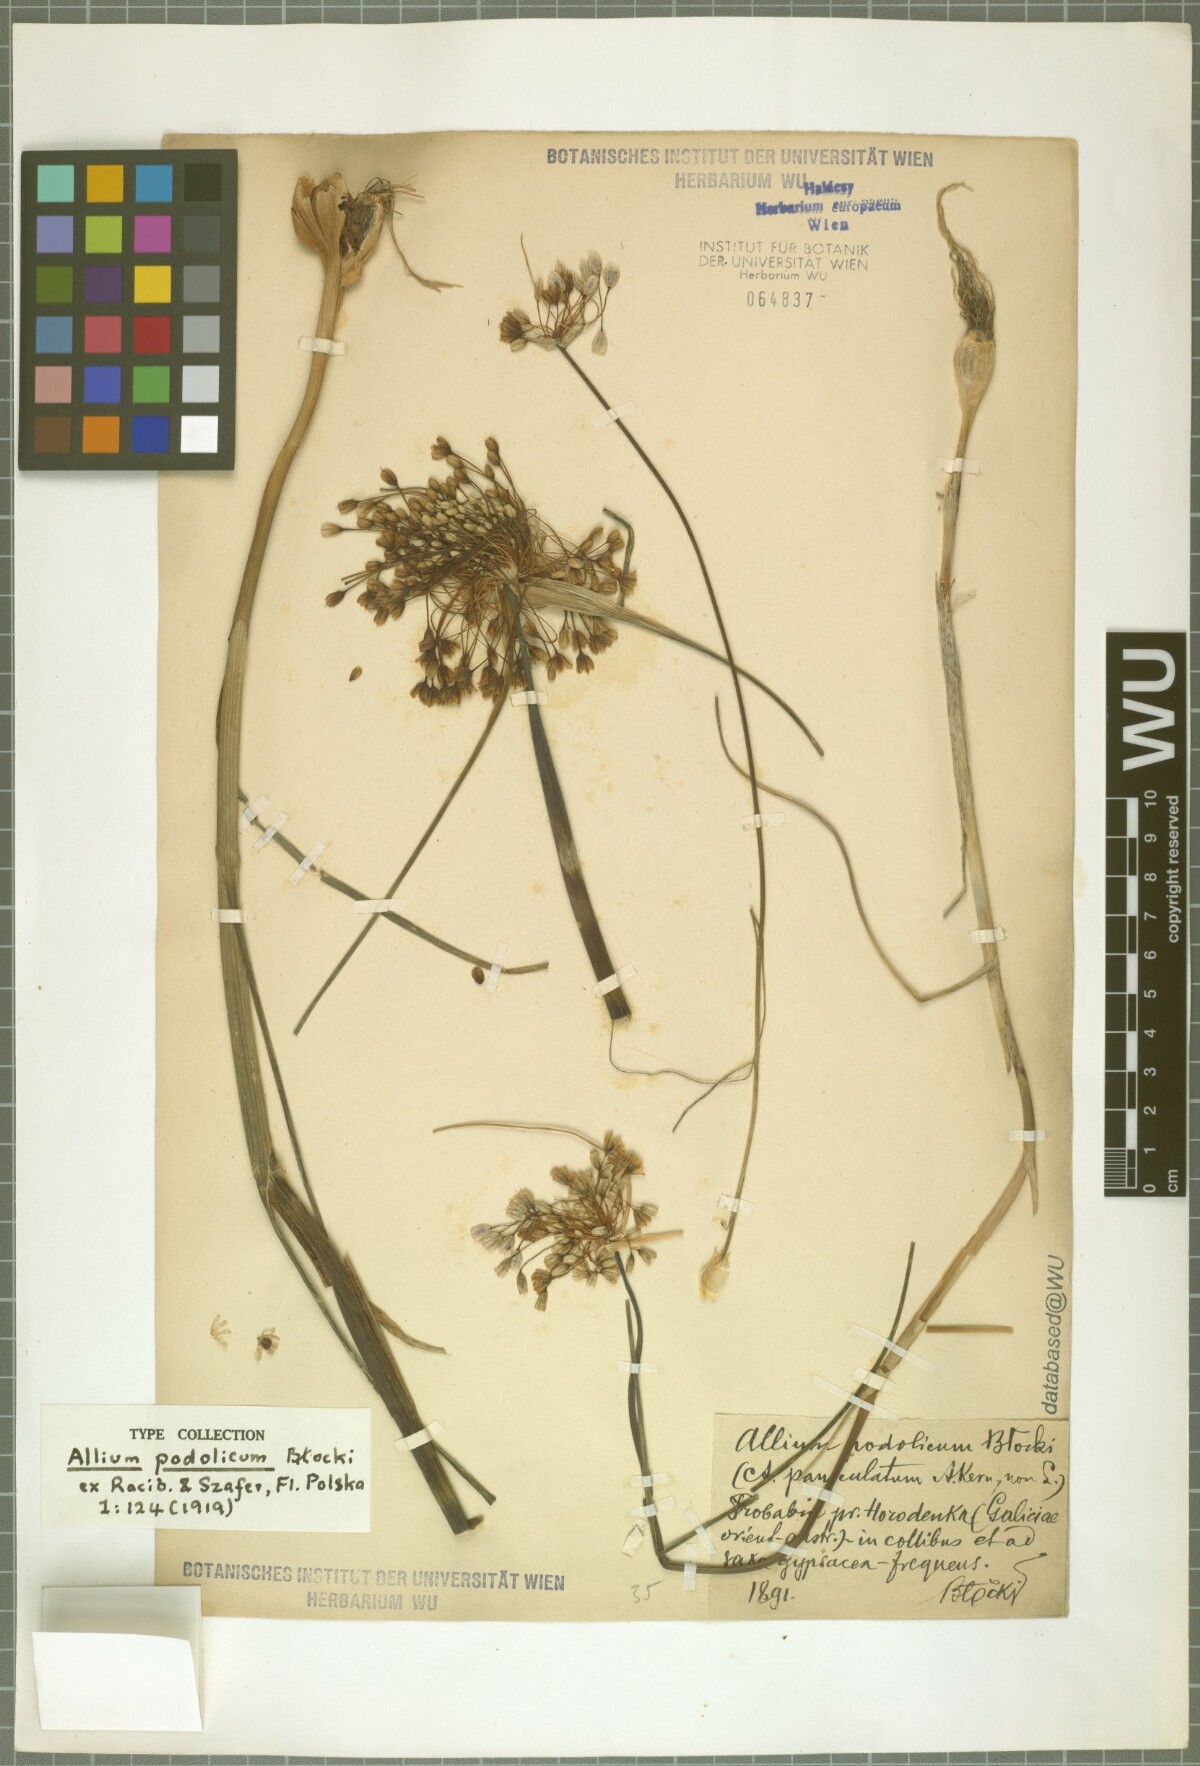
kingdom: Plantae
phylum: Tracheophyta
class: Liliopsida
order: Asparagales
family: Amaryllidaceae
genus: Allium
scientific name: Allium podolicum
